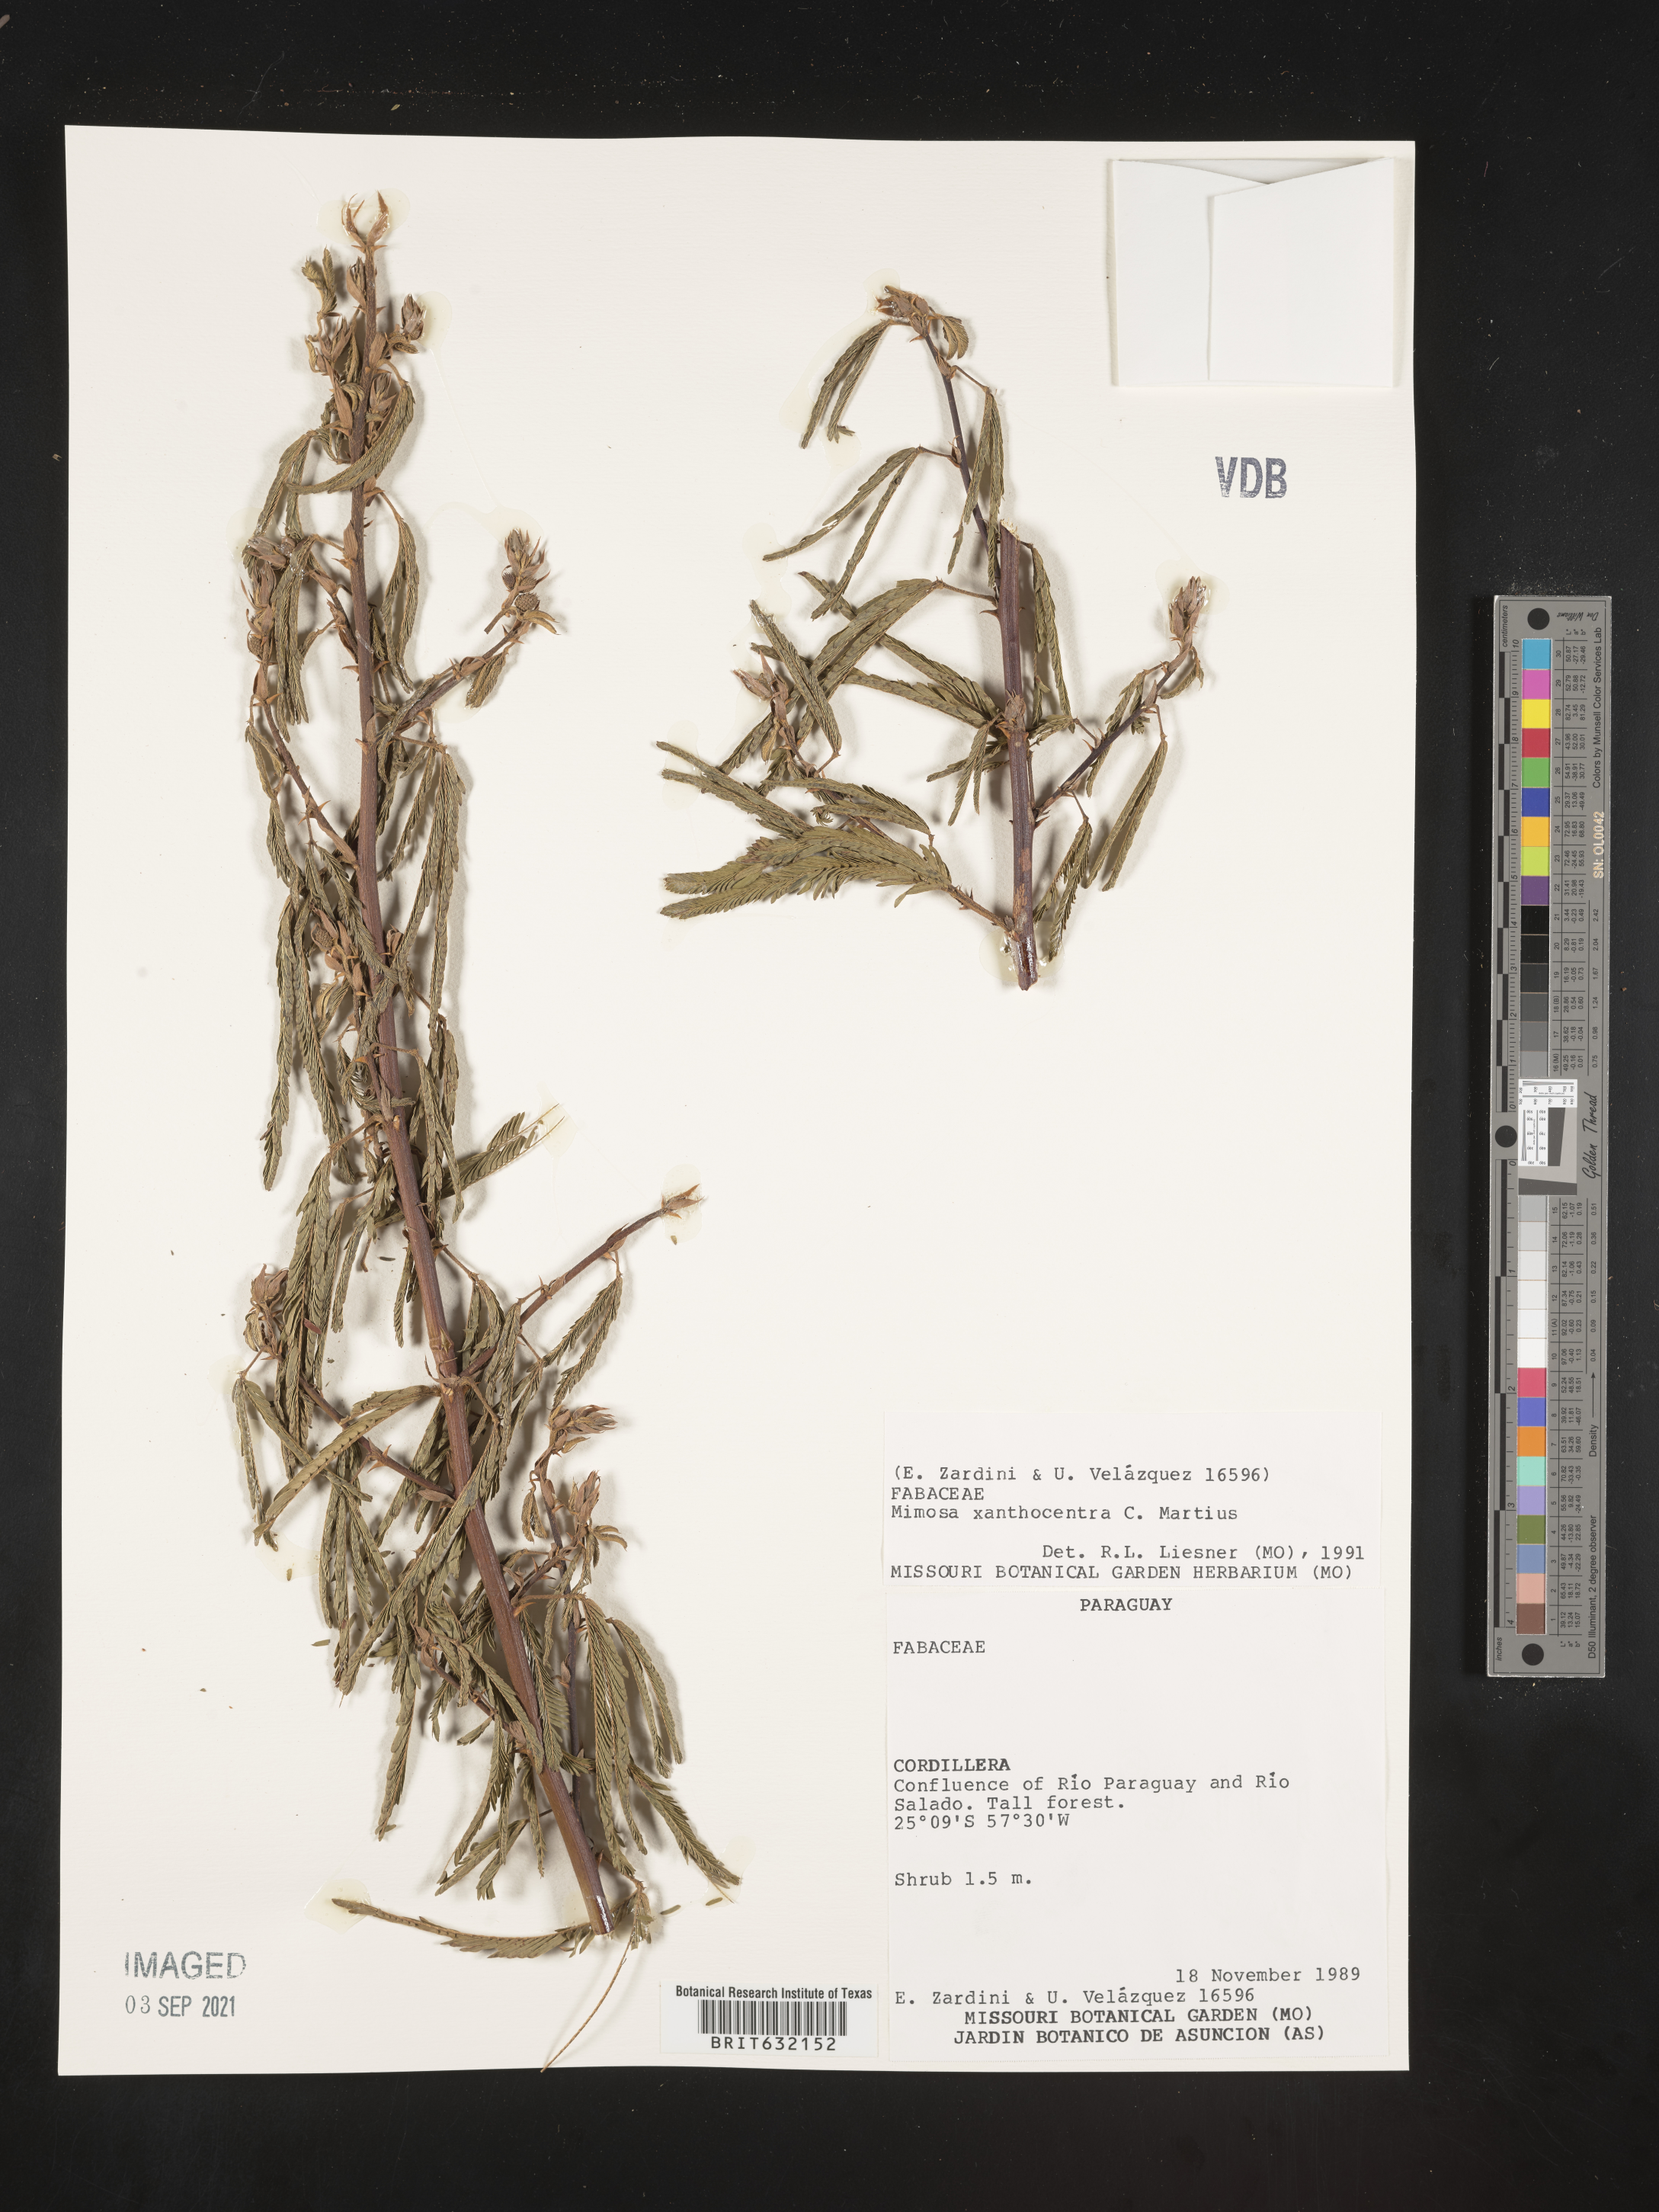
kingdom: Plantae
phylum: Tracheophyta
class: Magnoliopsida
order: Fabales
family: Fabaceae
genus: Mimosa
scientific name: Mimosa
